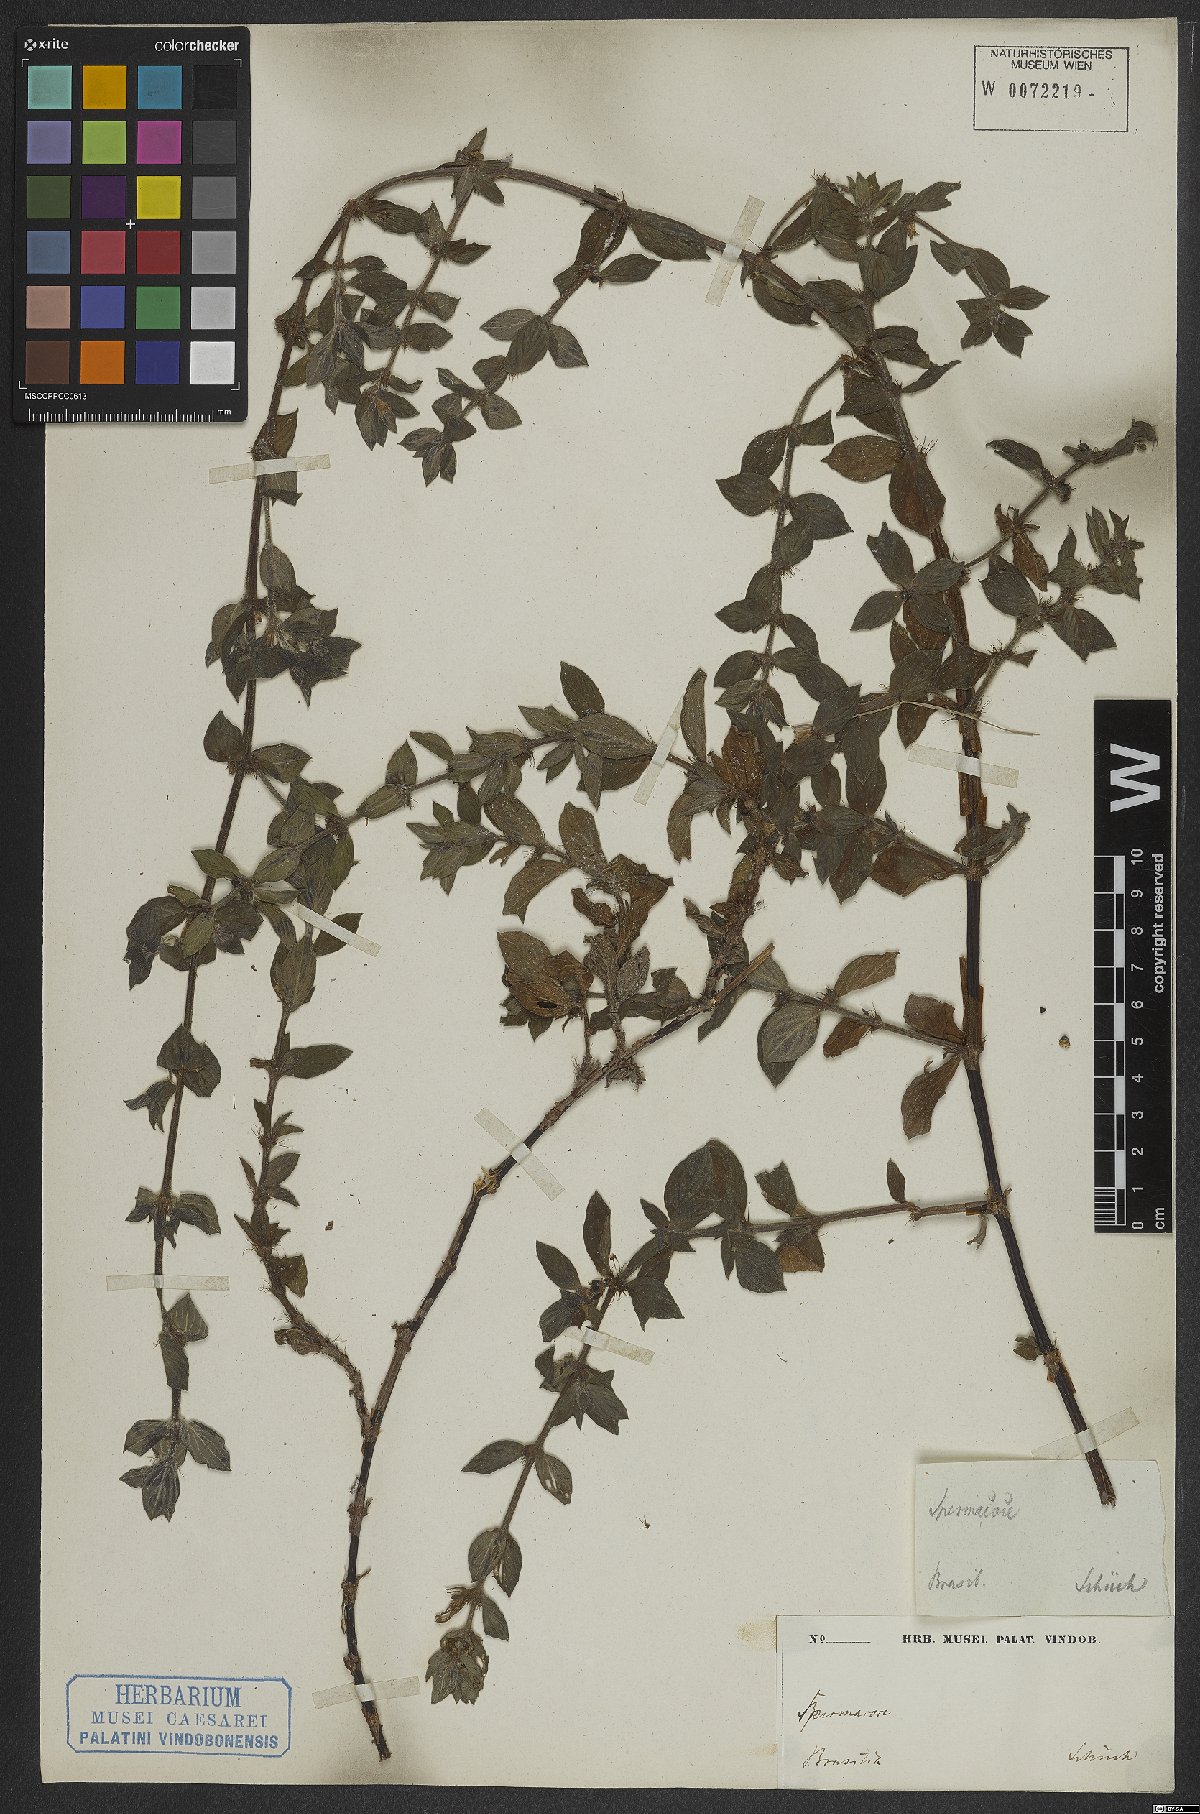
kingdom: Plantae
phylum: Tracheophyta
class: Magnoliopsida
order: Gentianales
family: Rubiaceae
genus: Hexasepalum
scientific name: Hexasepalum radulum
